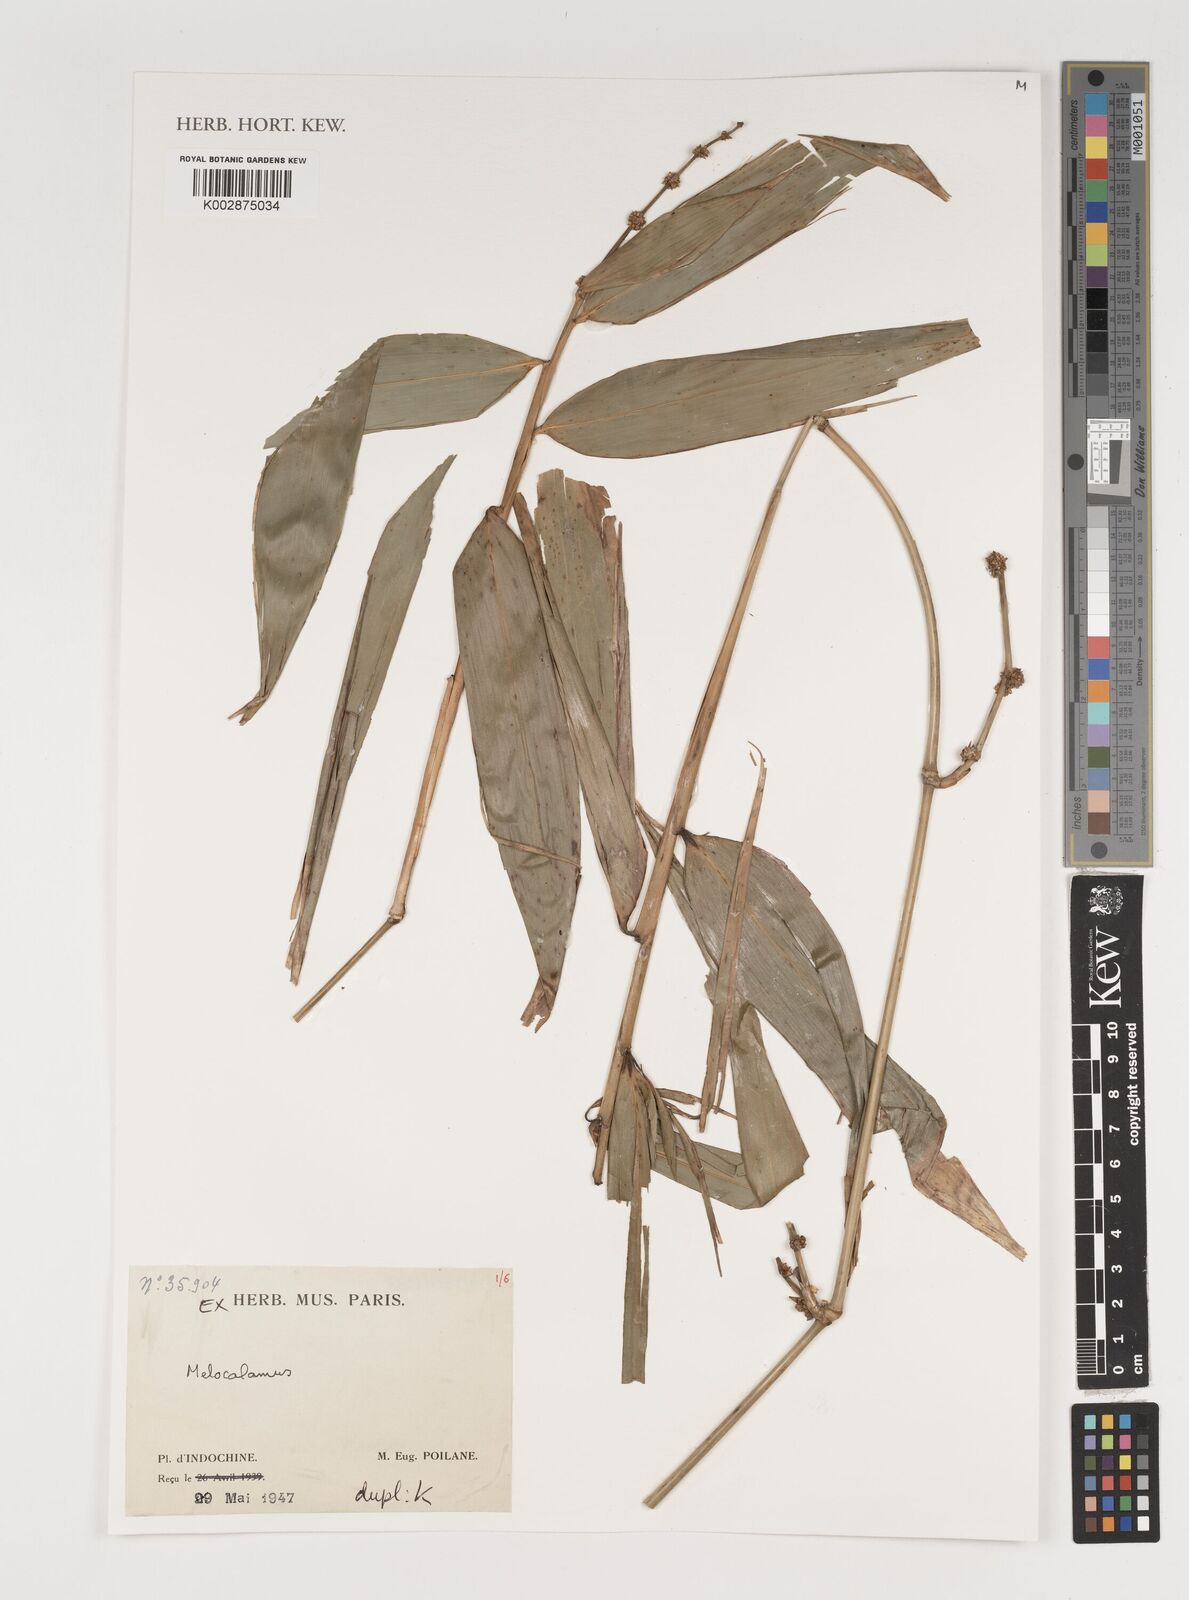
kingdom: Plantae
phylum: Tracheophyta
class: Liliopsida
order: Poales
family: Poaceae
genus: Melocalamus
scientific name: Melocalamus
